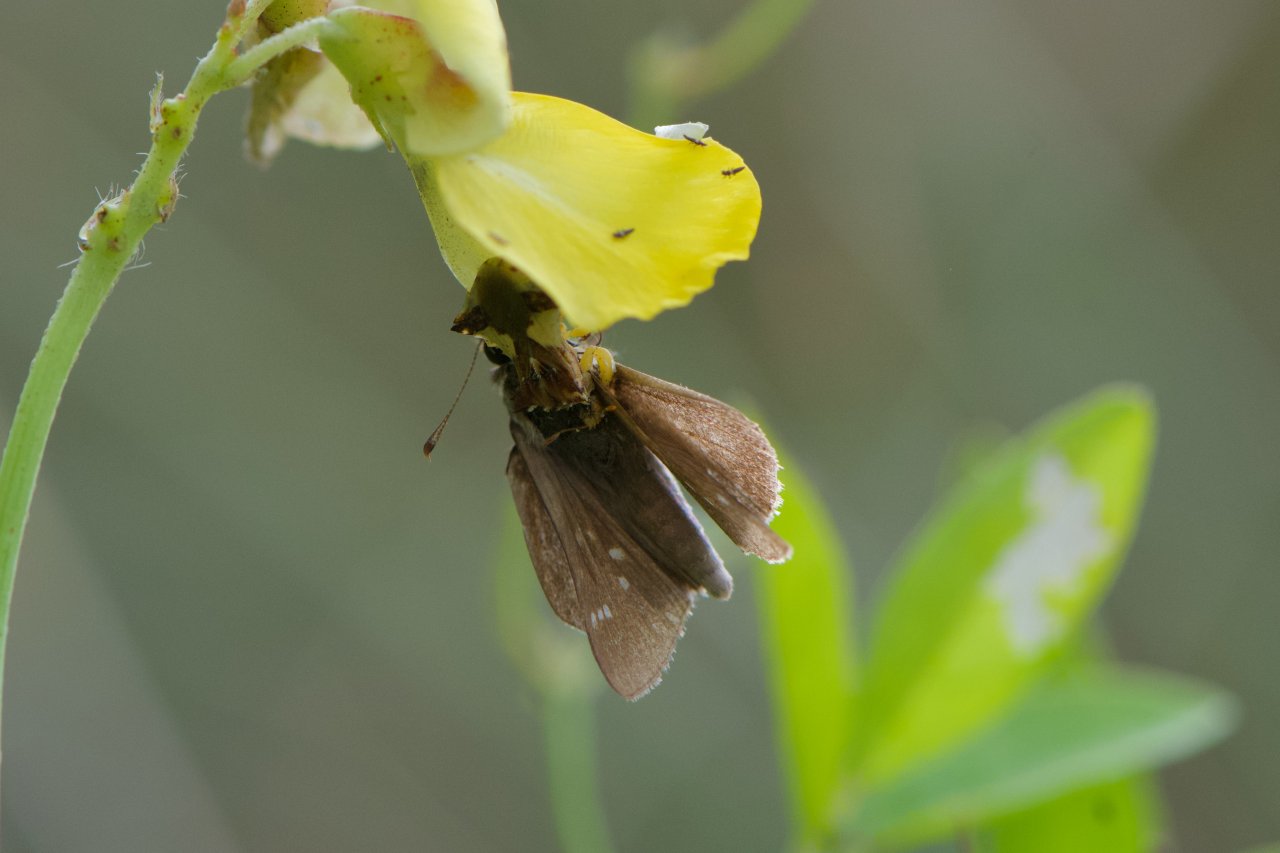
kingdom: Animalia
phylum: Arthropoda
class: Insecta
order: Lepidoptera
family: Hesperiidae
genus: Lerodea
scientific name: Lerodea eufala
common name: Eufala Skipper
